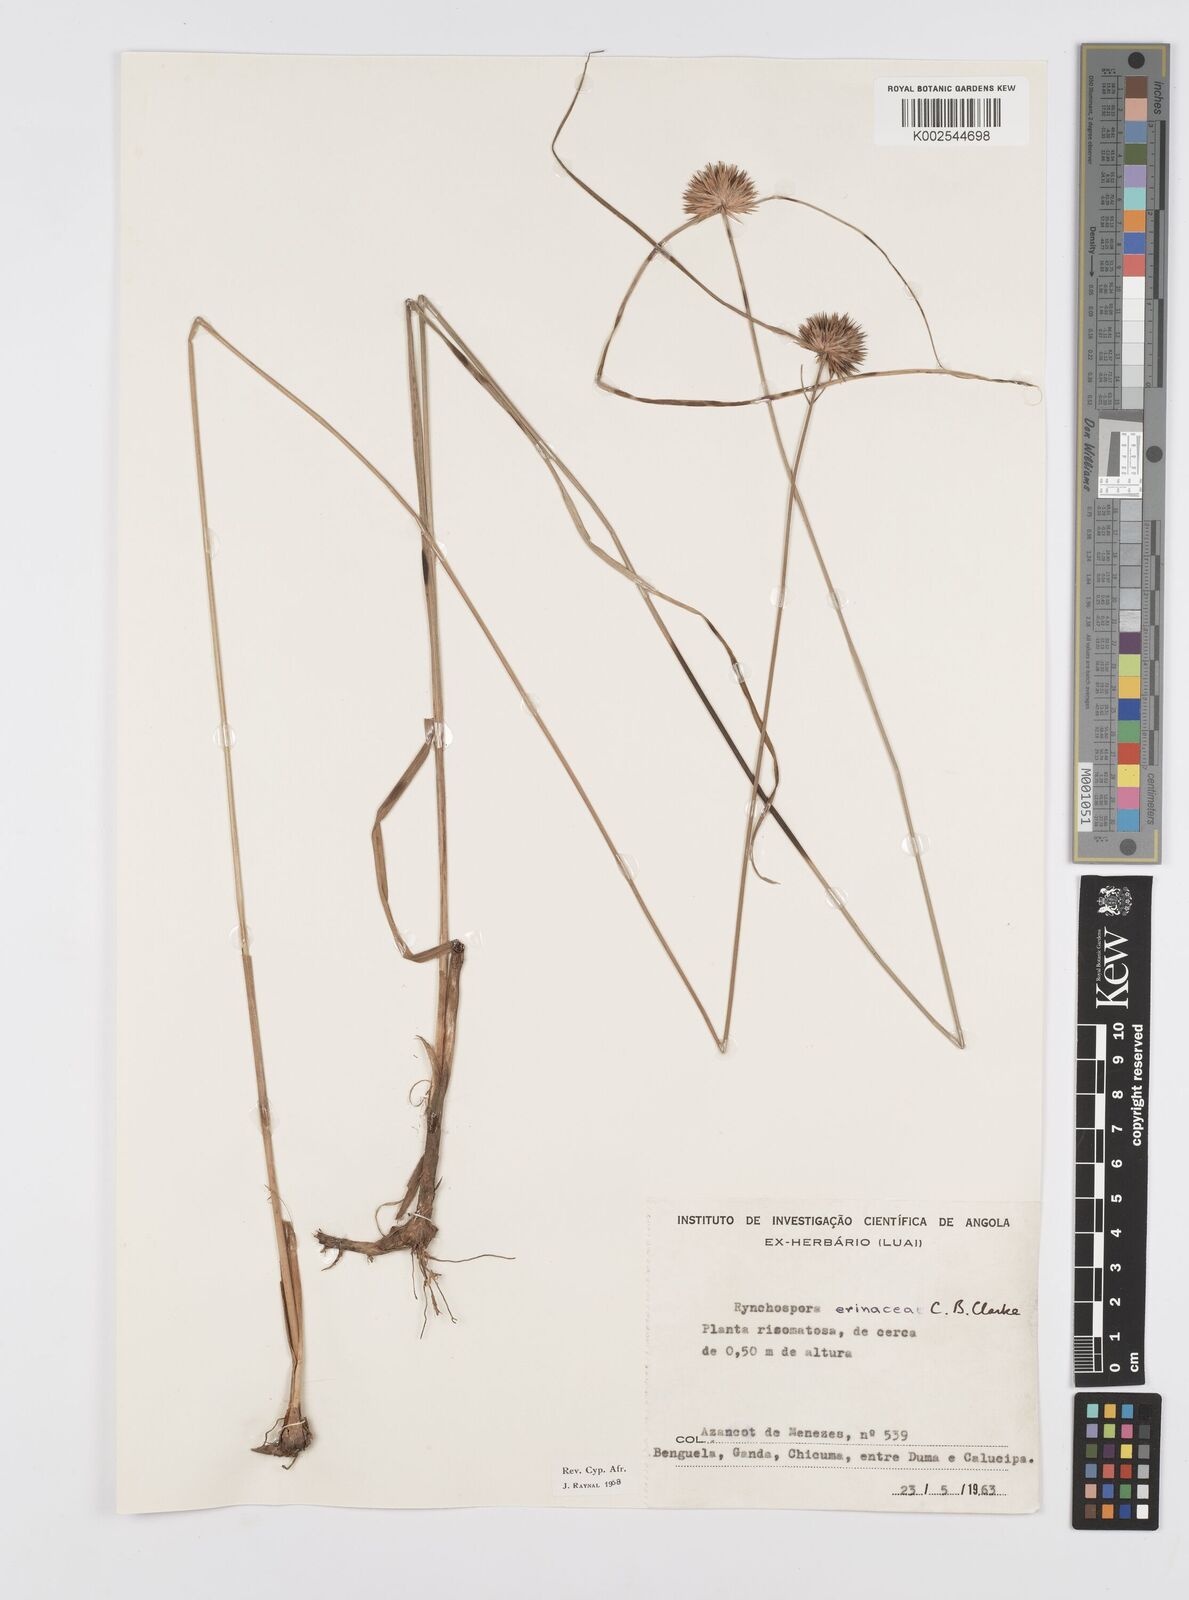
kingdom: Plantae
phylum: Tracheophyta
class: Liliopsida
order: Poales
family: Cyperaceae
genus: Cyperus
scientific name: Cyperus erinaceus
